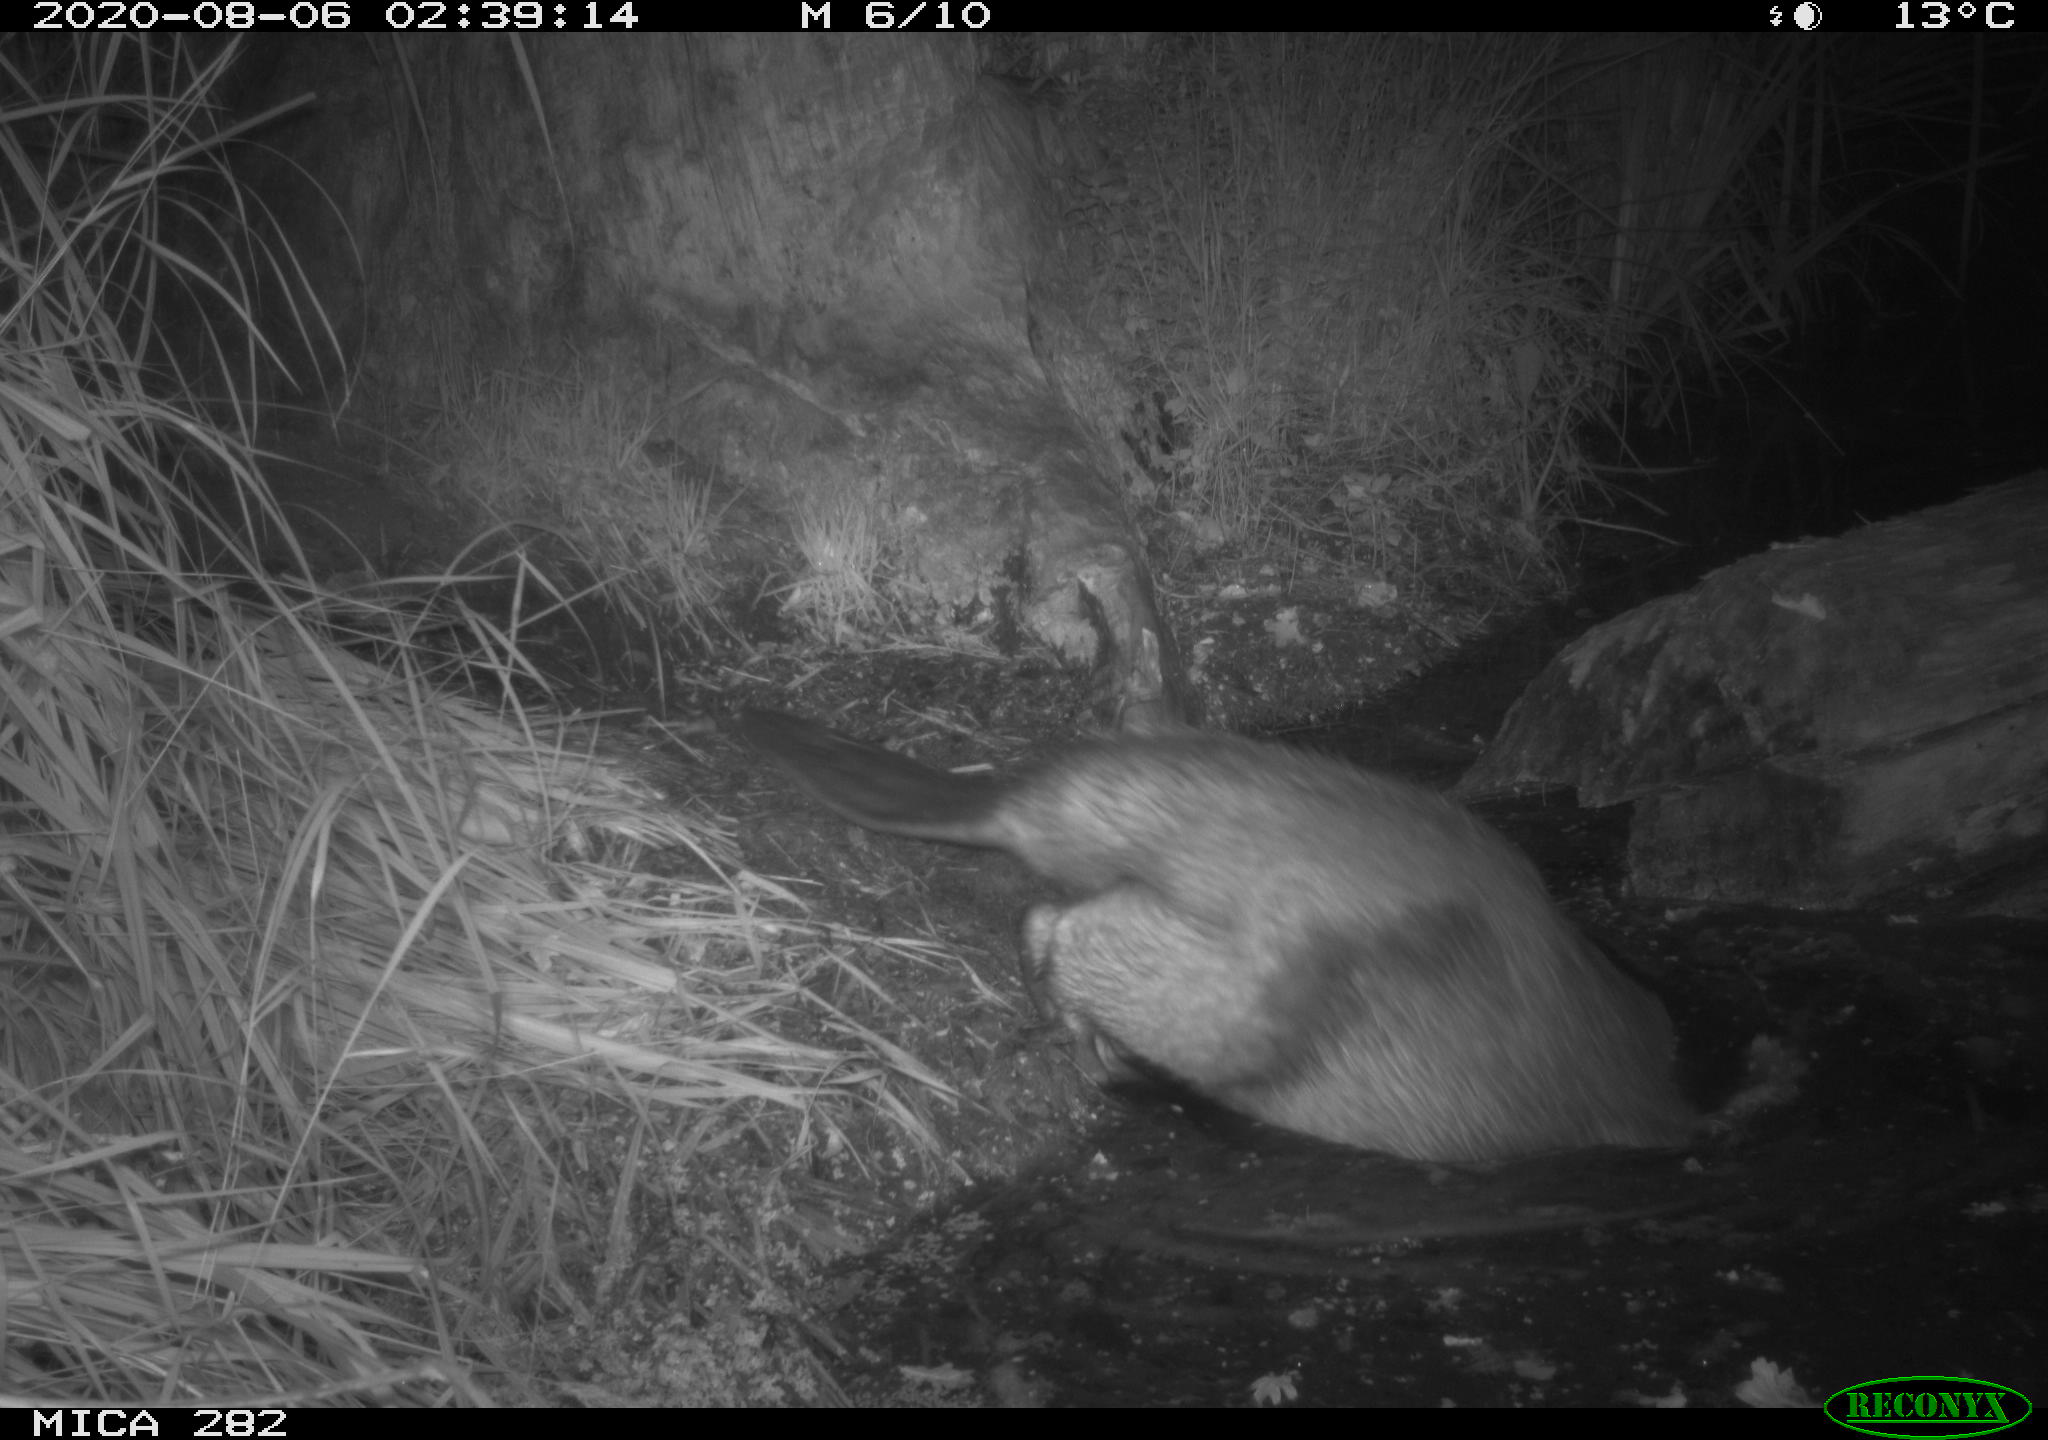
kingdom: Animalia
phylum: Chordata
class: Mammalia
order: Rodentia
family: Castoridae
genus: Castor
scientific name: Castor fiber
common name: Eurasian beaver
